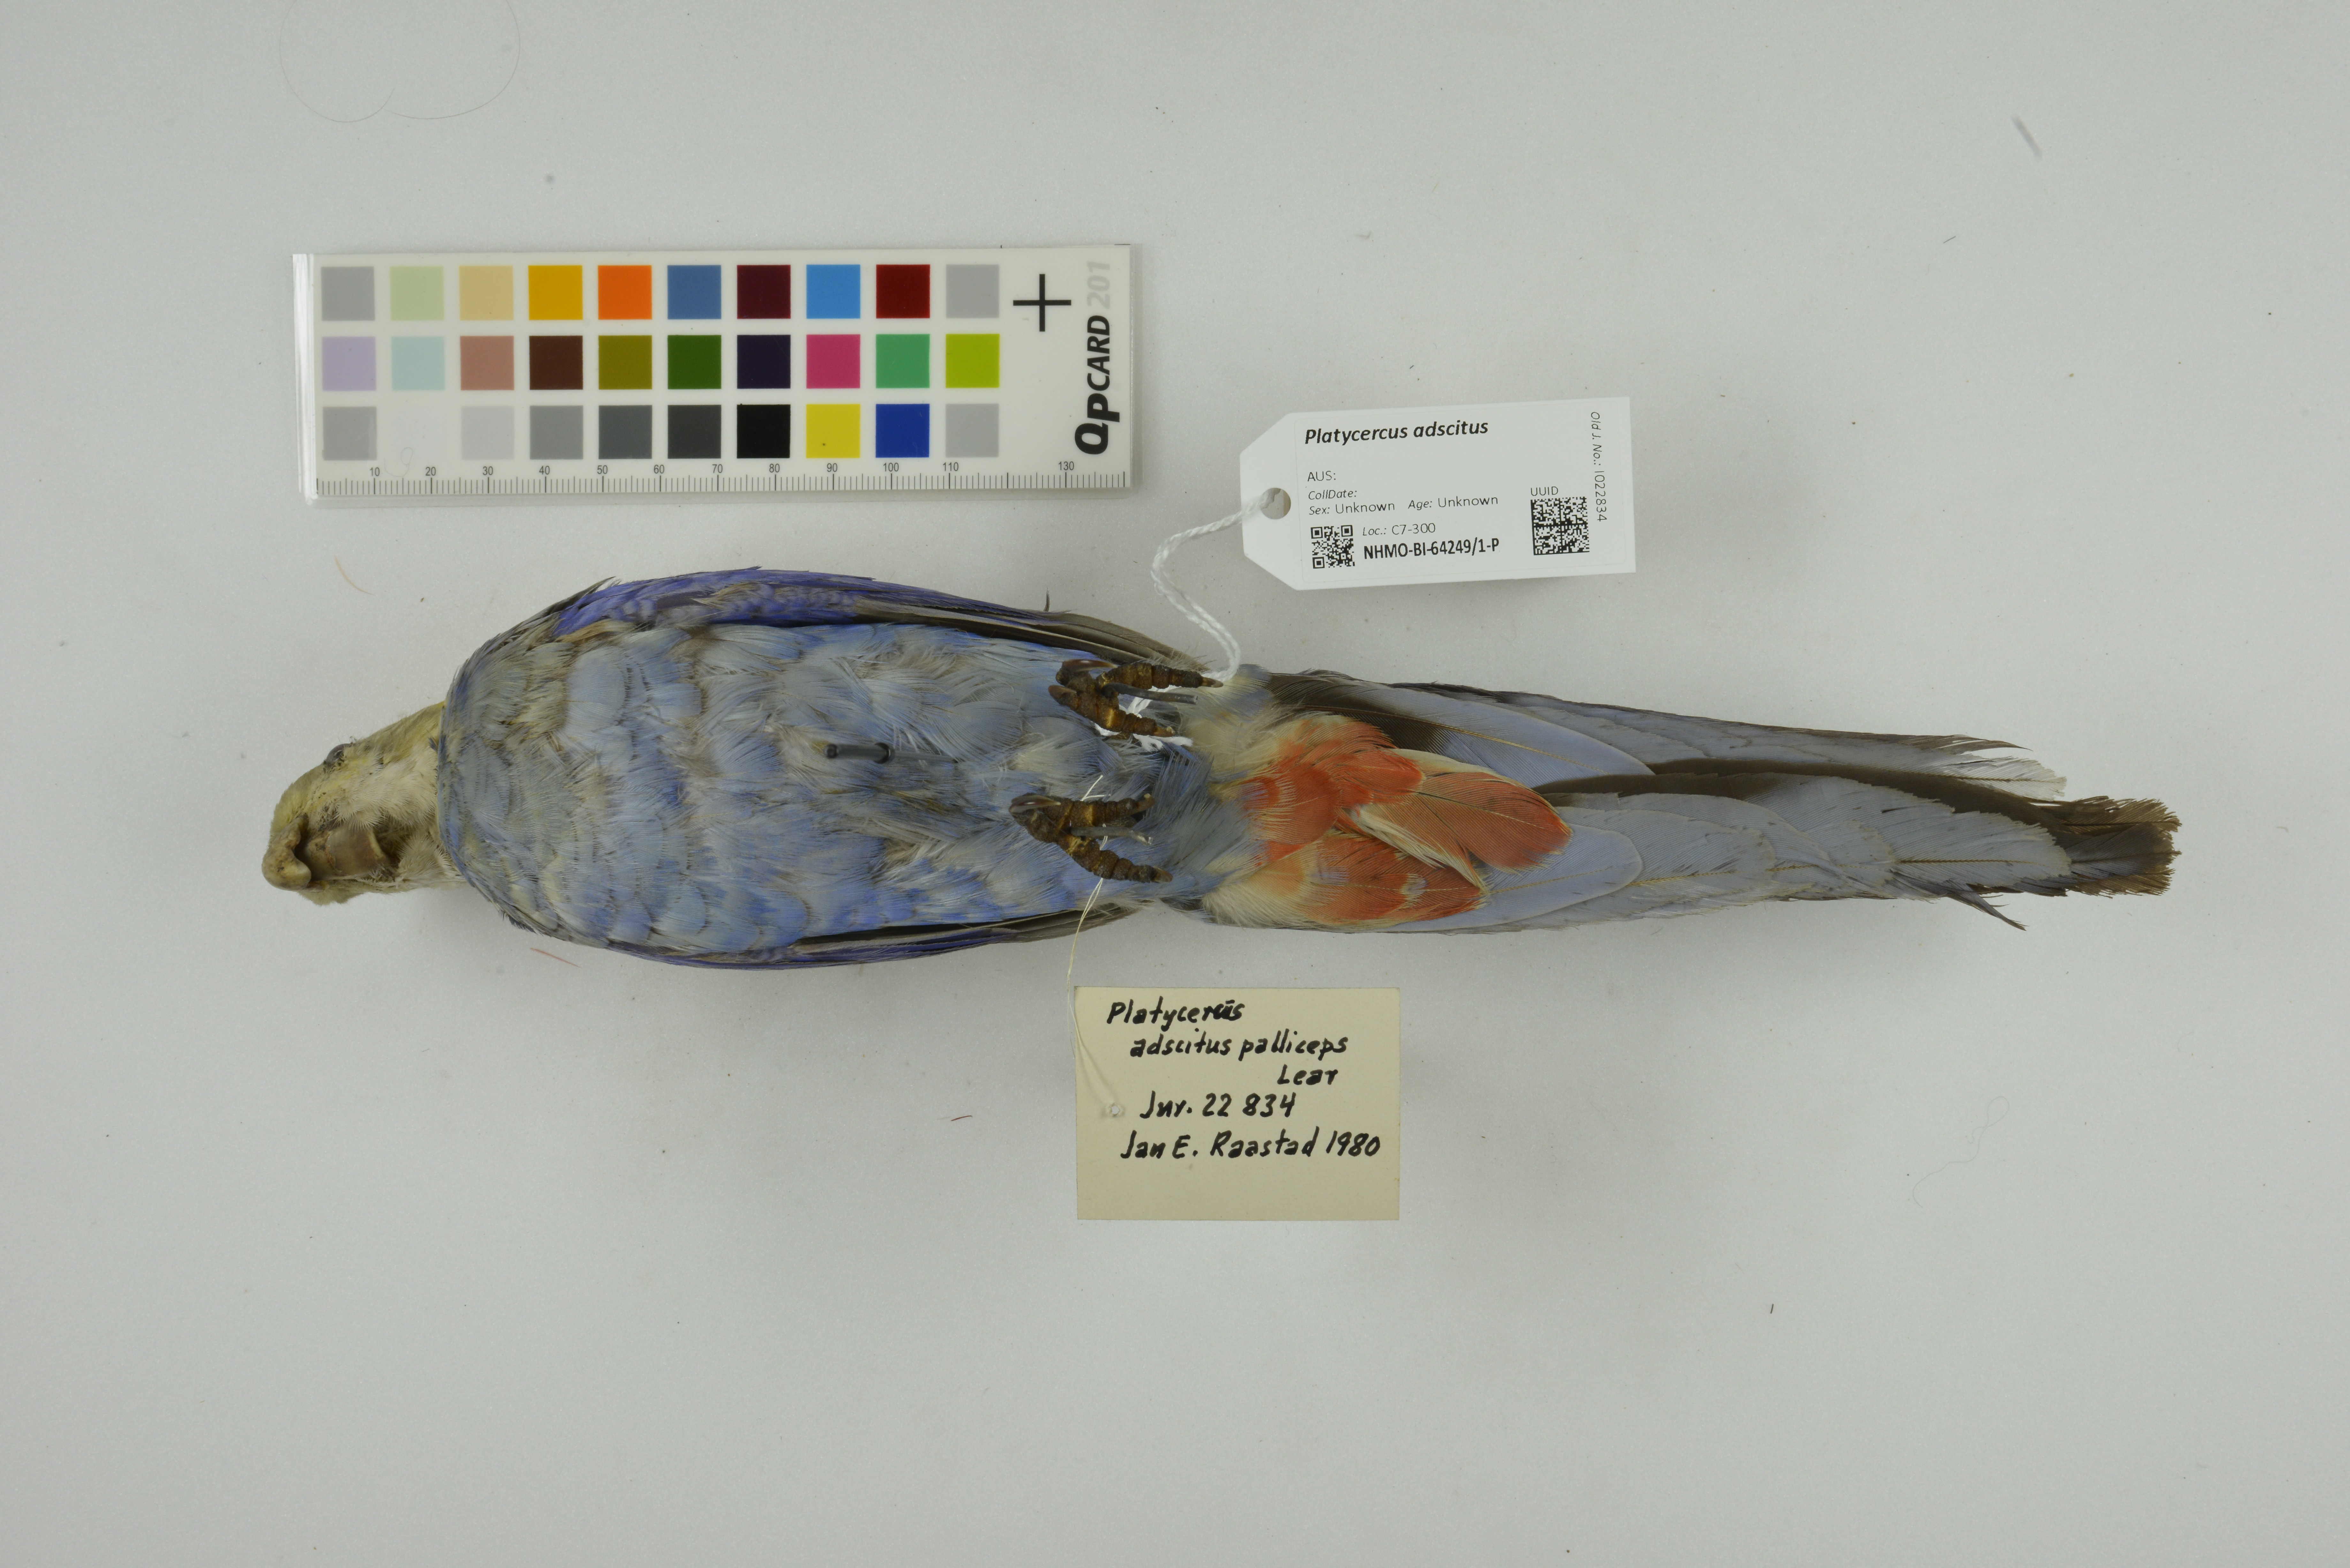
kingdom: Animalia
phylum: Chordata
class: Aves
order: Psittaciformes
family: Psittacidae
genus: Platycercus
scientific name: Platycercus adscitus
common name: Pale-headed rosella
